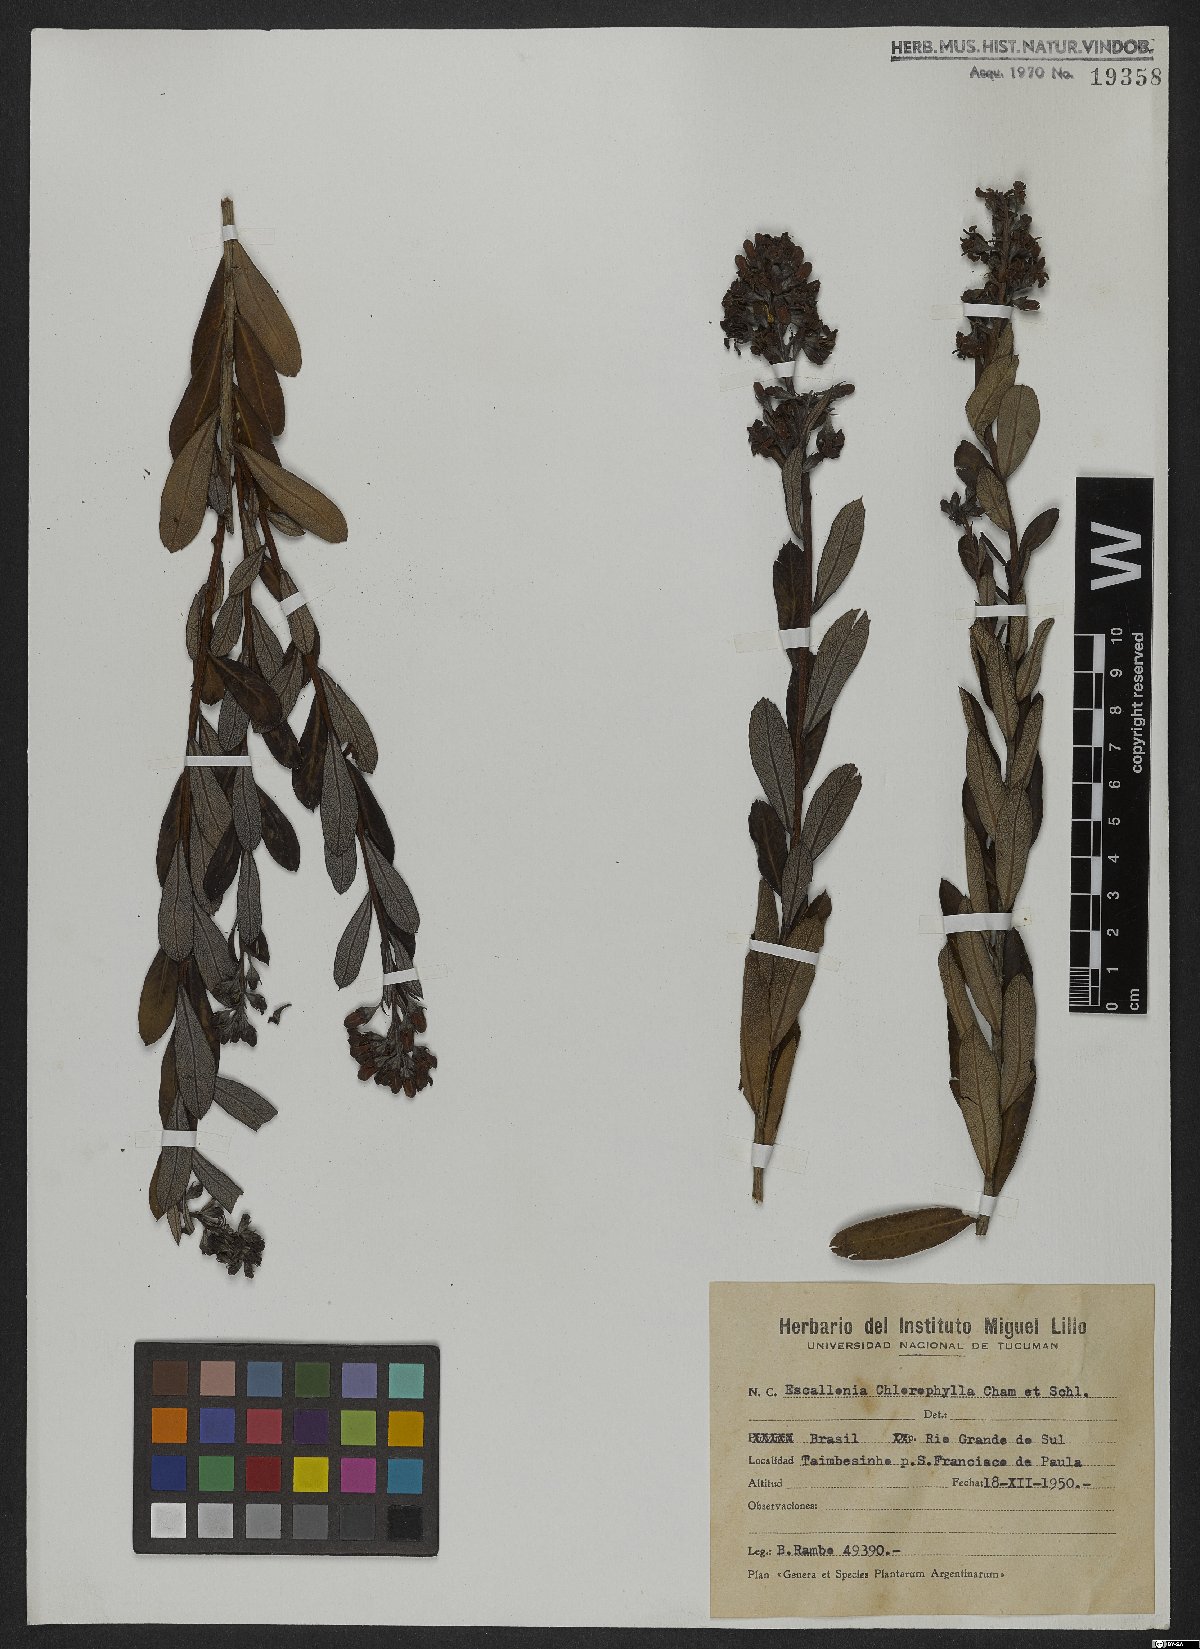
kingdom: Plantae
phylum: Tracheophyta
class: Magnoliopsida
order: Escalloniales
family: Escalloniaceae
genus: Escallonia
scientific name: Escallonia chlorophylla
